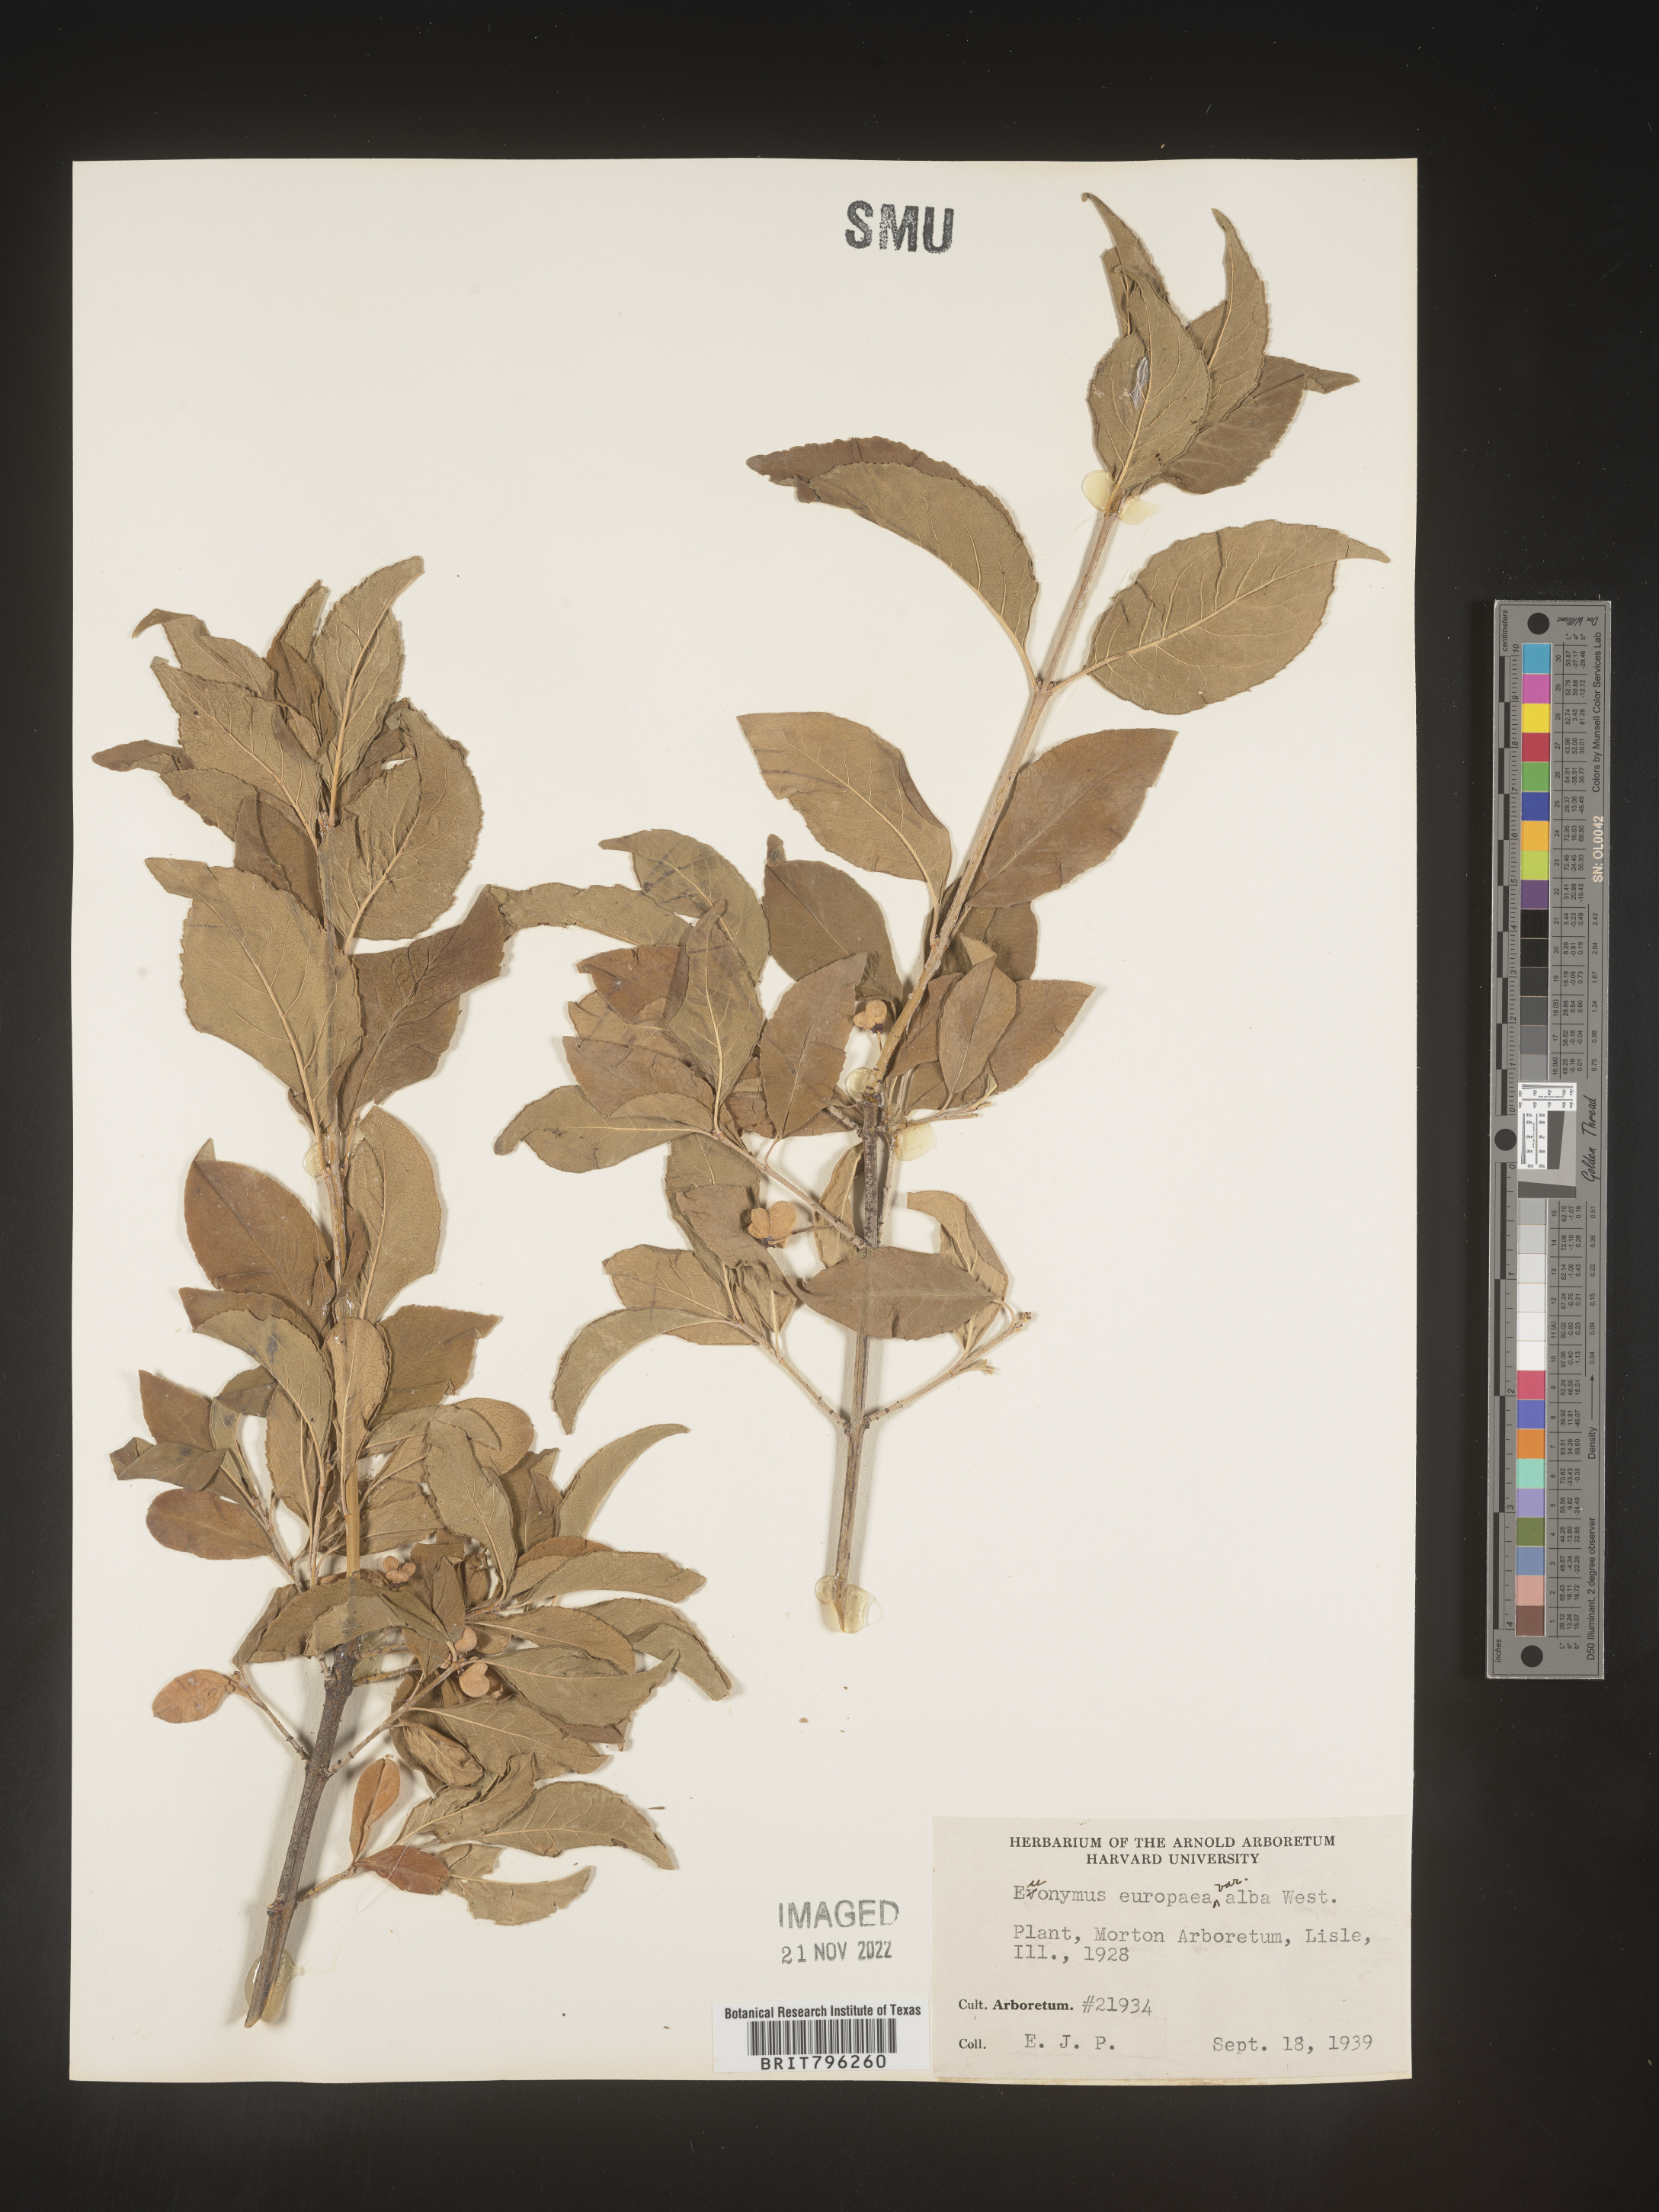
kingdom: Plantae
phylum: Tracheophyta
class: Magnoliopsida
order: Celastrales
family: Celastraceae
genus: Euonymus
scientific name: Euonymus europaeus
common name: Spindle
